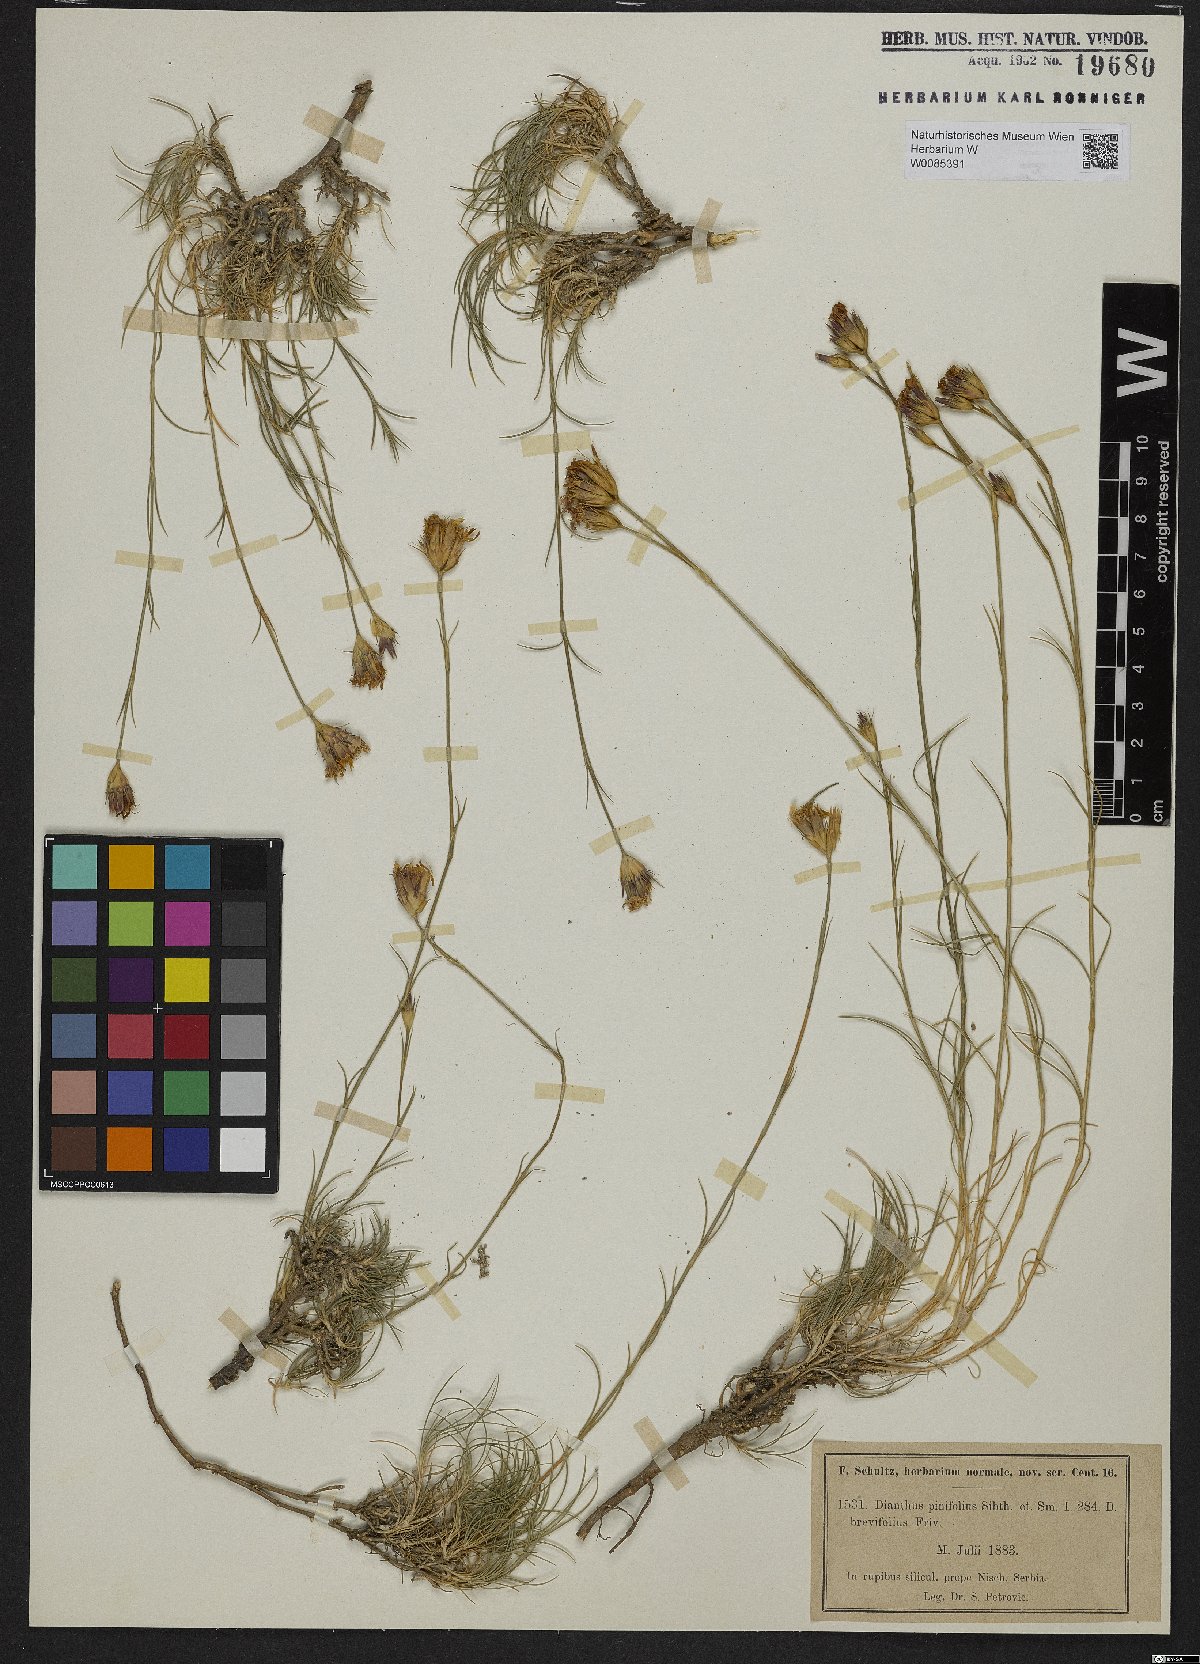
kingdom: Plantae
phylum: Tracheophyta
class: Magnoliopsida
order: Caryophyllales
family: Caryophyllaceae
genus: Dianthus
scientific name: Dianthus pinifolius
